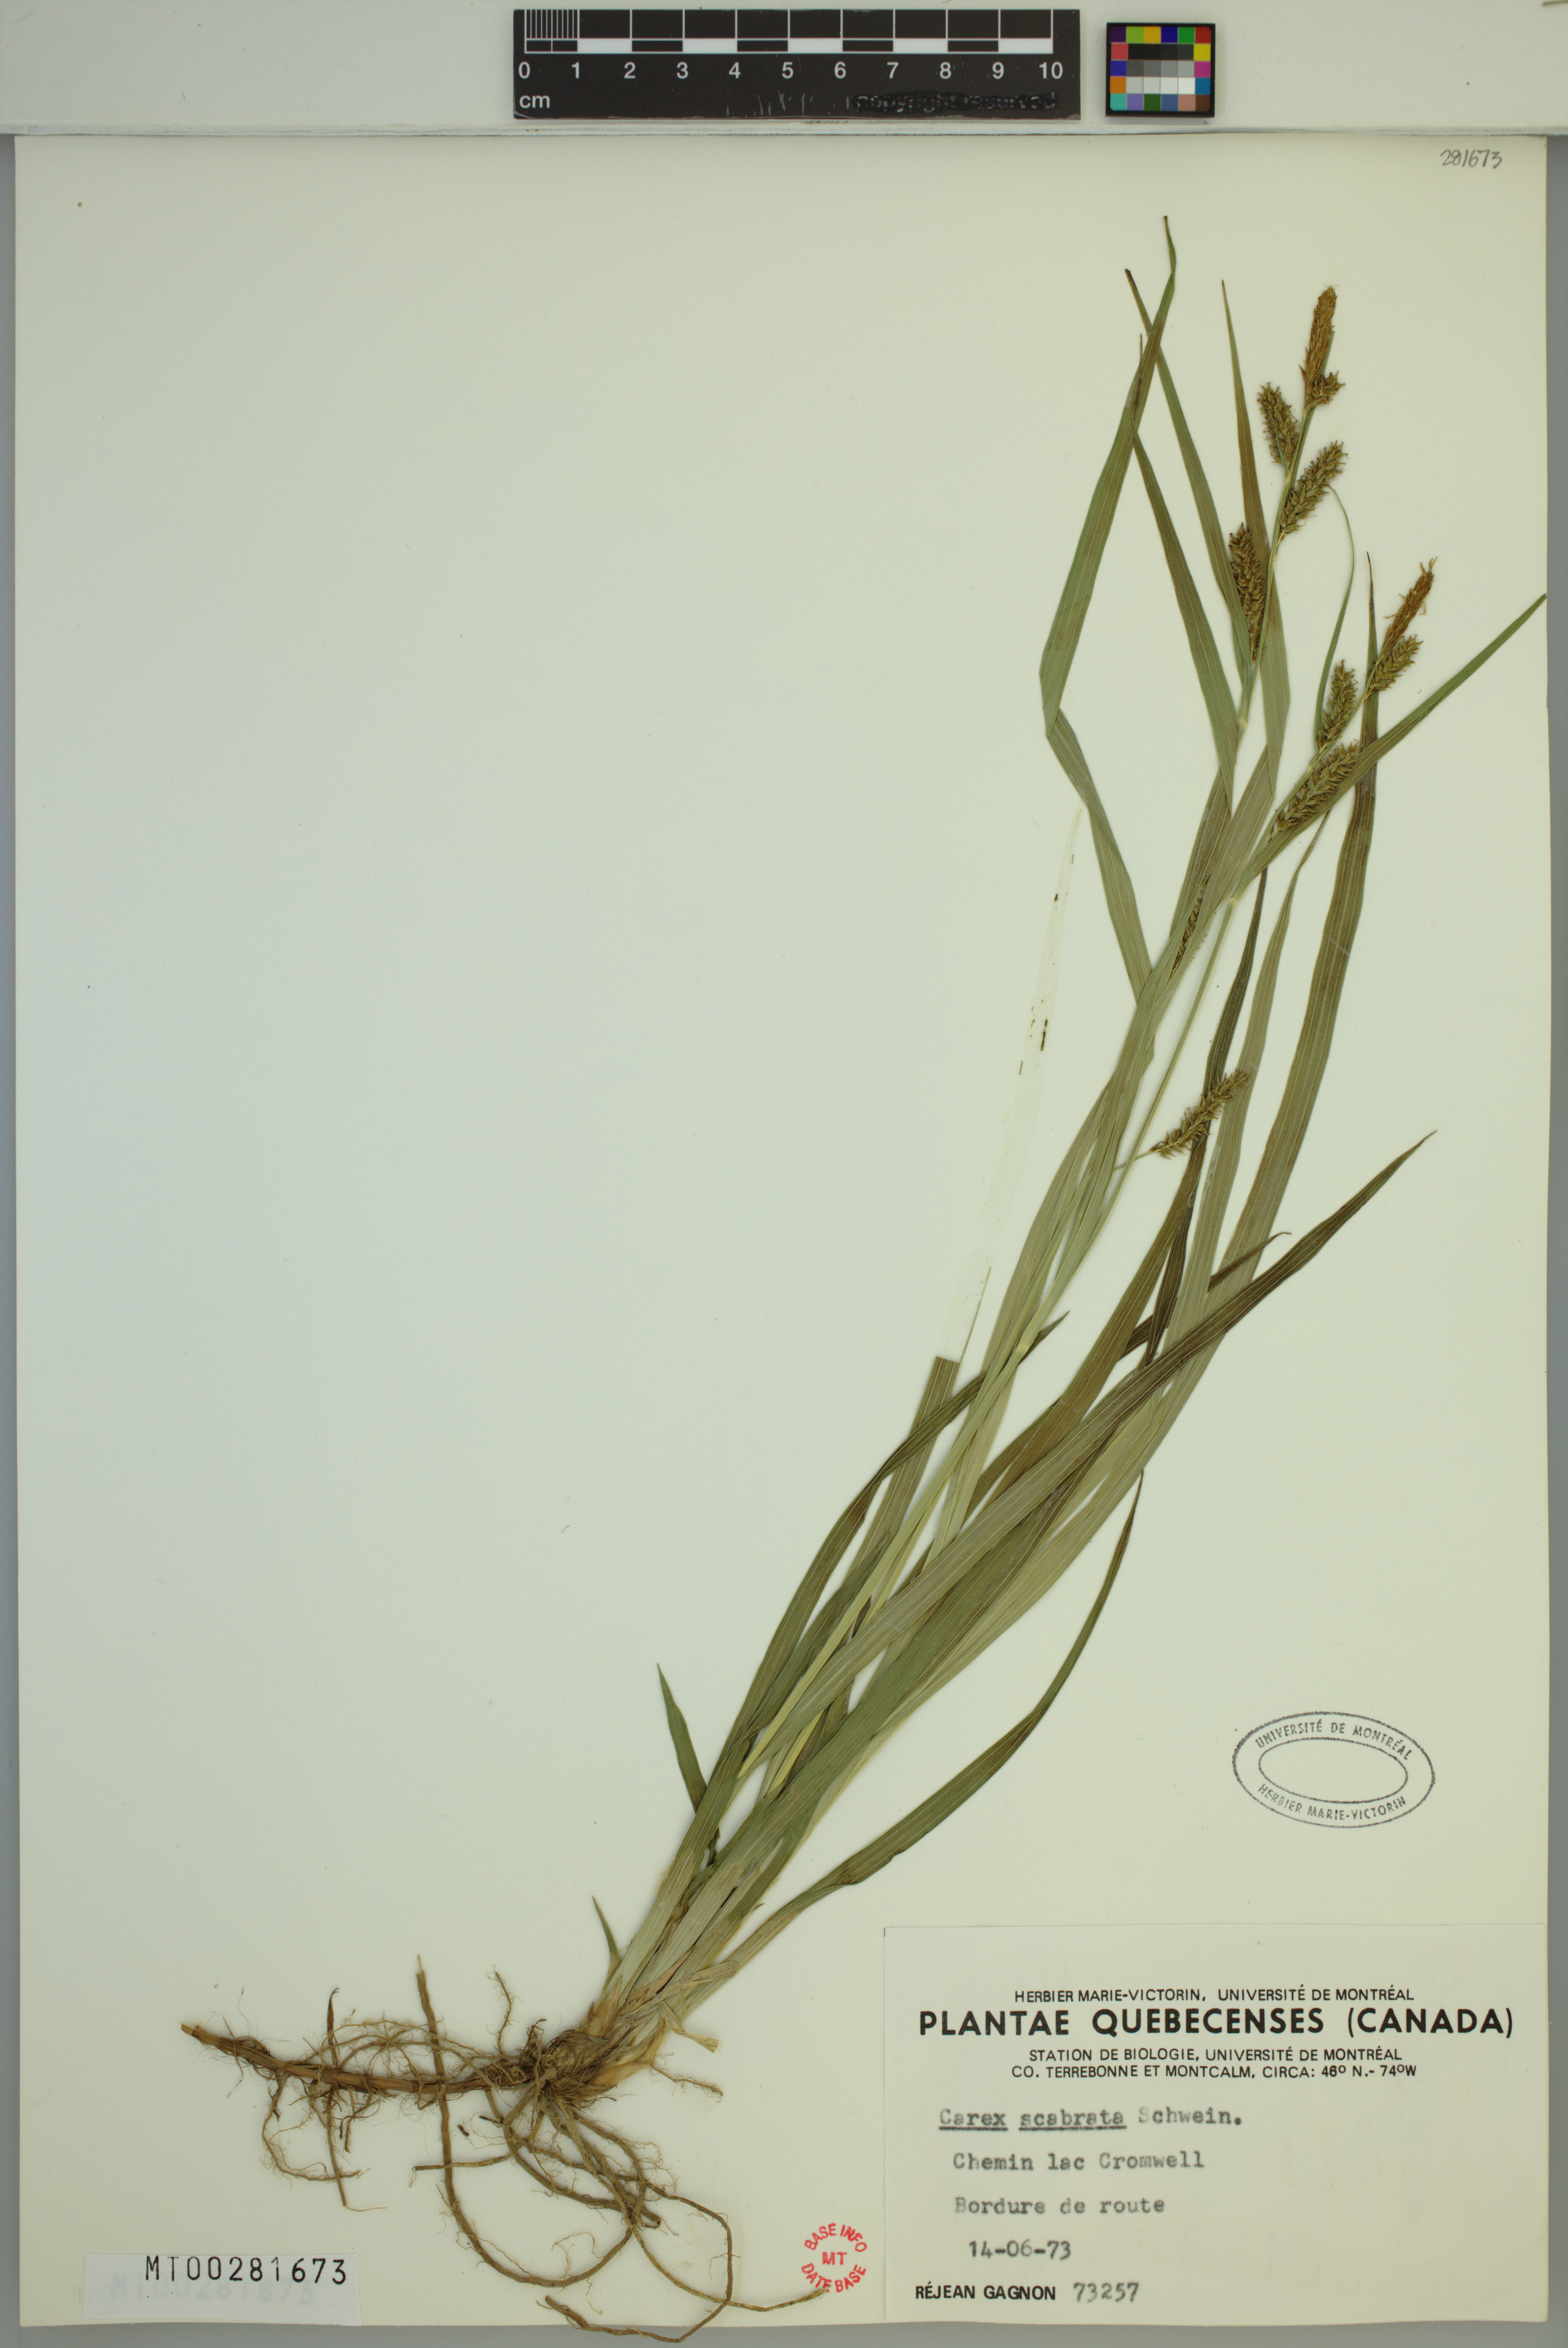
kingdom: Plantae
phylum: Tracheophyta
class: Liliopsida
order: Poales
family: Cyperaceae
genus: Carex
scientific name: Carex scabrata
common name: Eastern rough sedge
